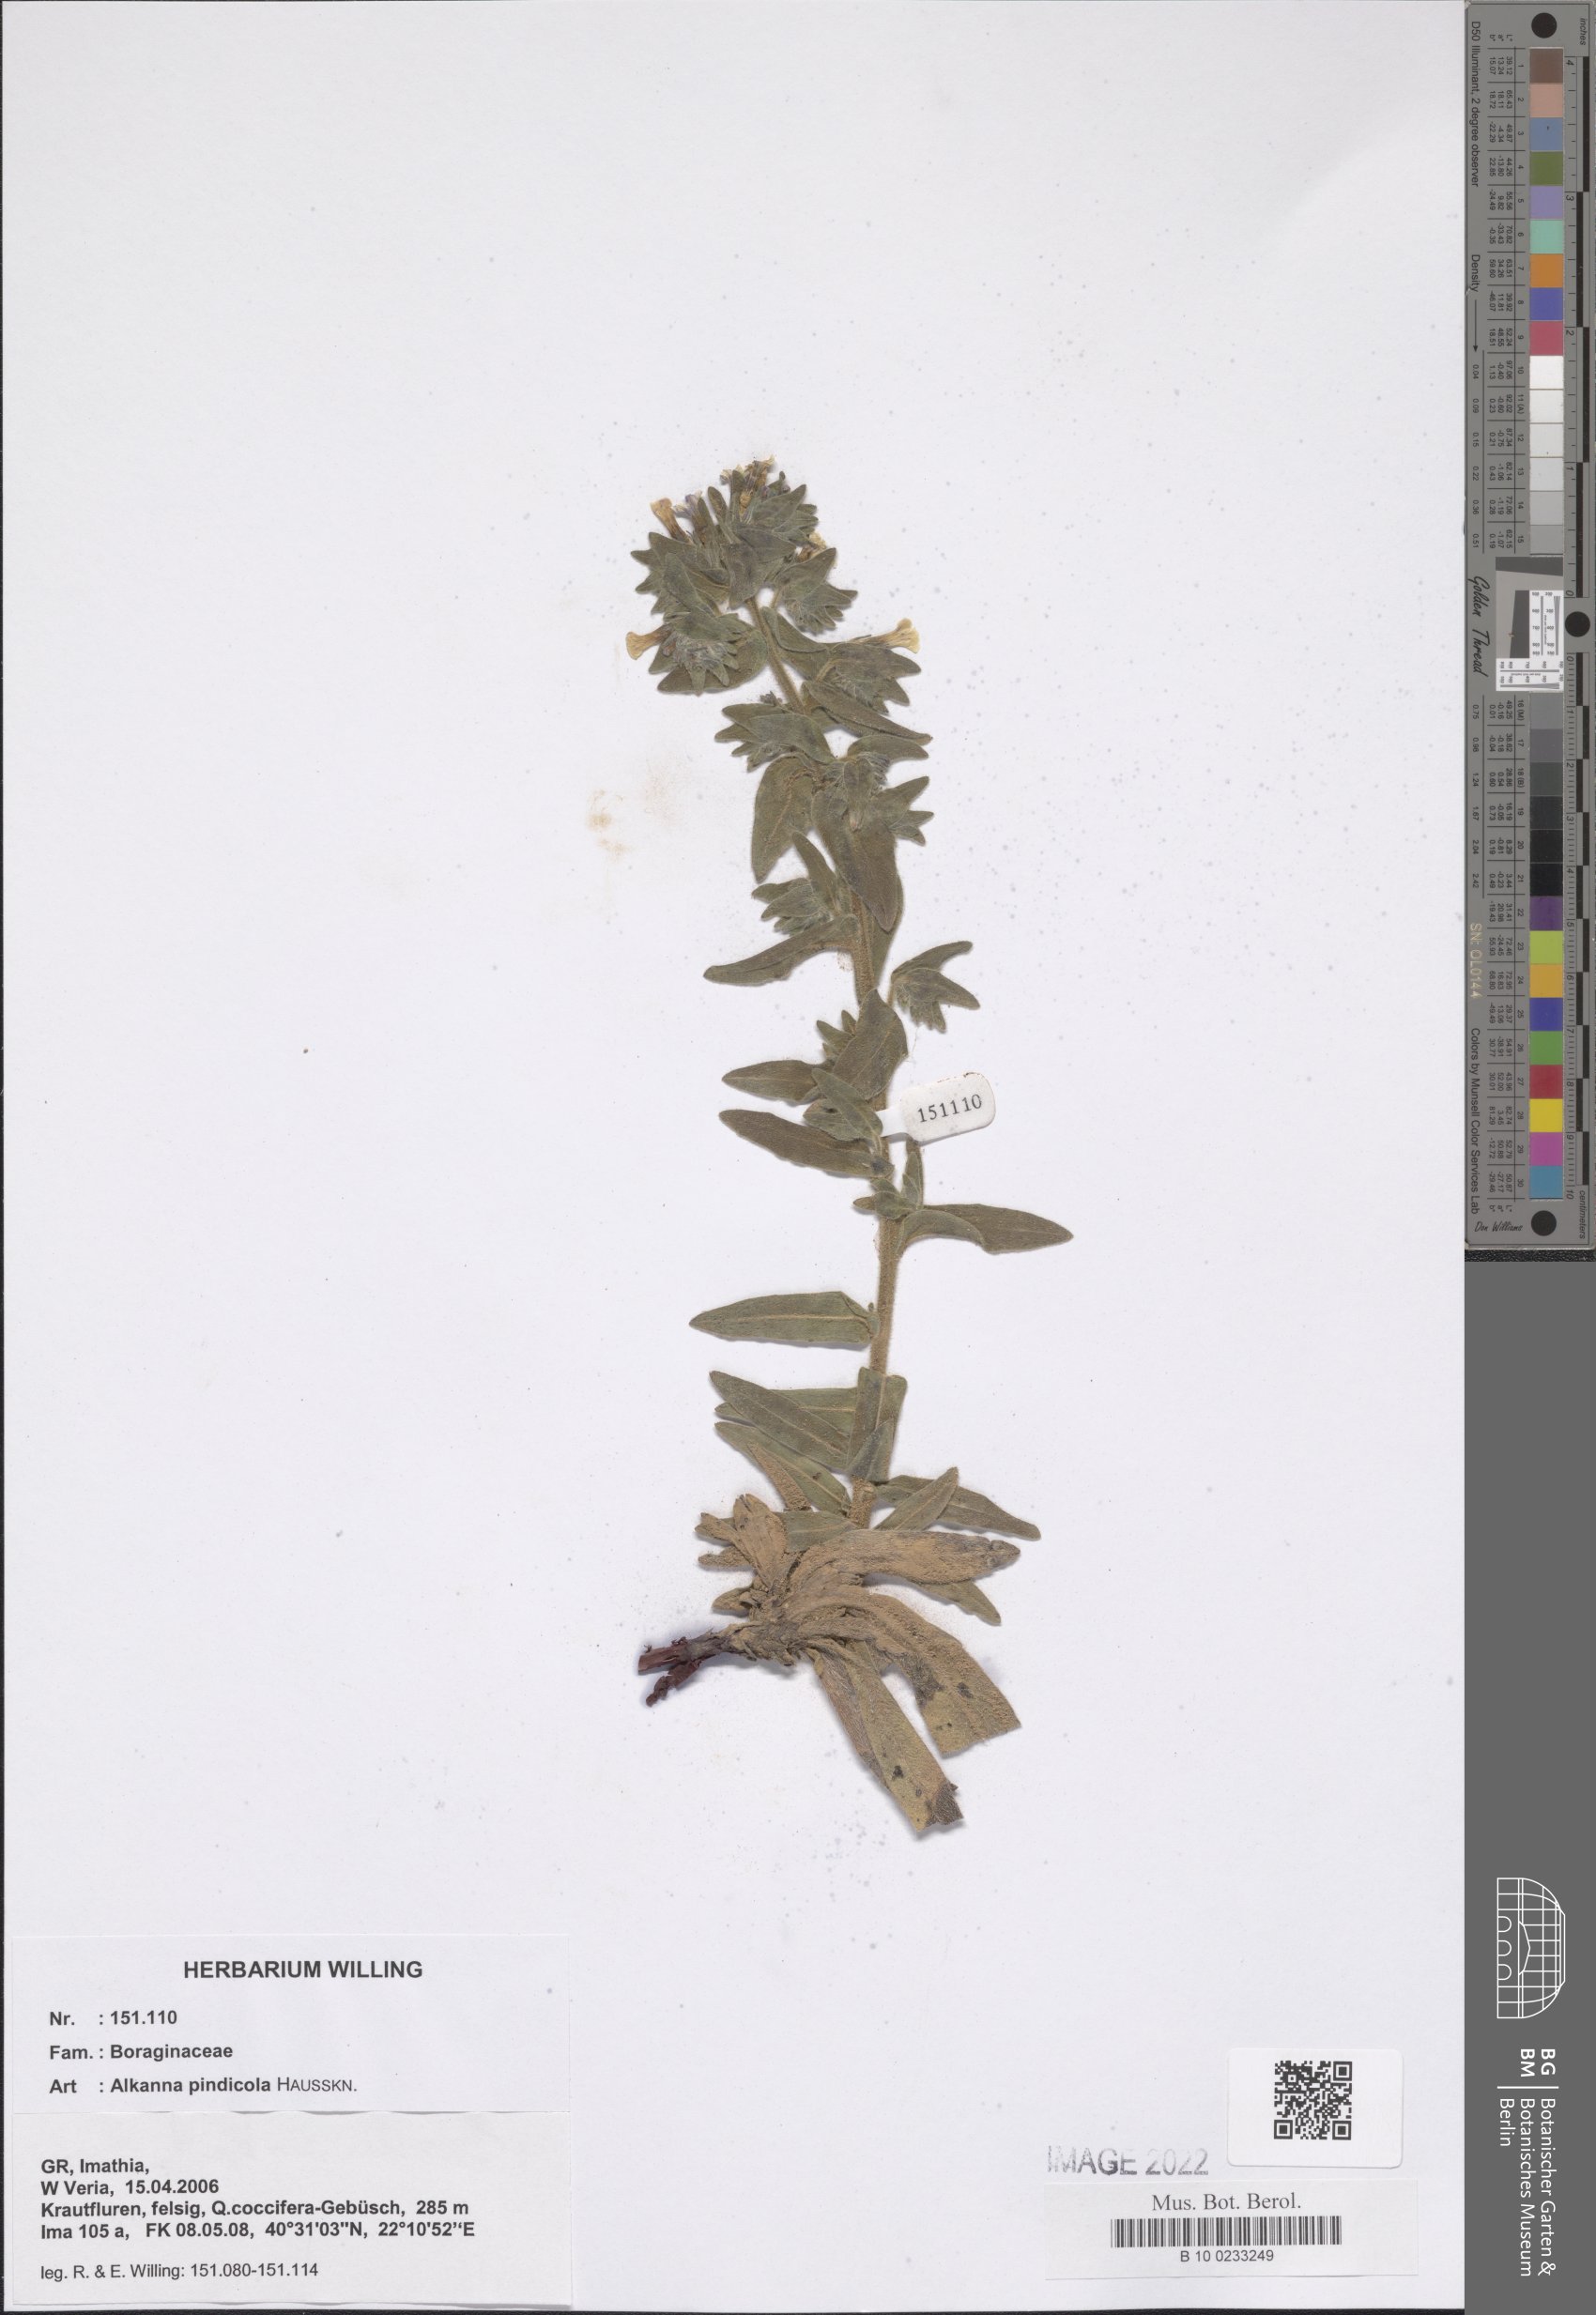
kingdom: Plantae
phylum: Tracheophyta
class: Magnoliopsida
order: Boraginales
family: Boraginaceae
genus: Alkanna
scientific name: Alkanna pindicola
